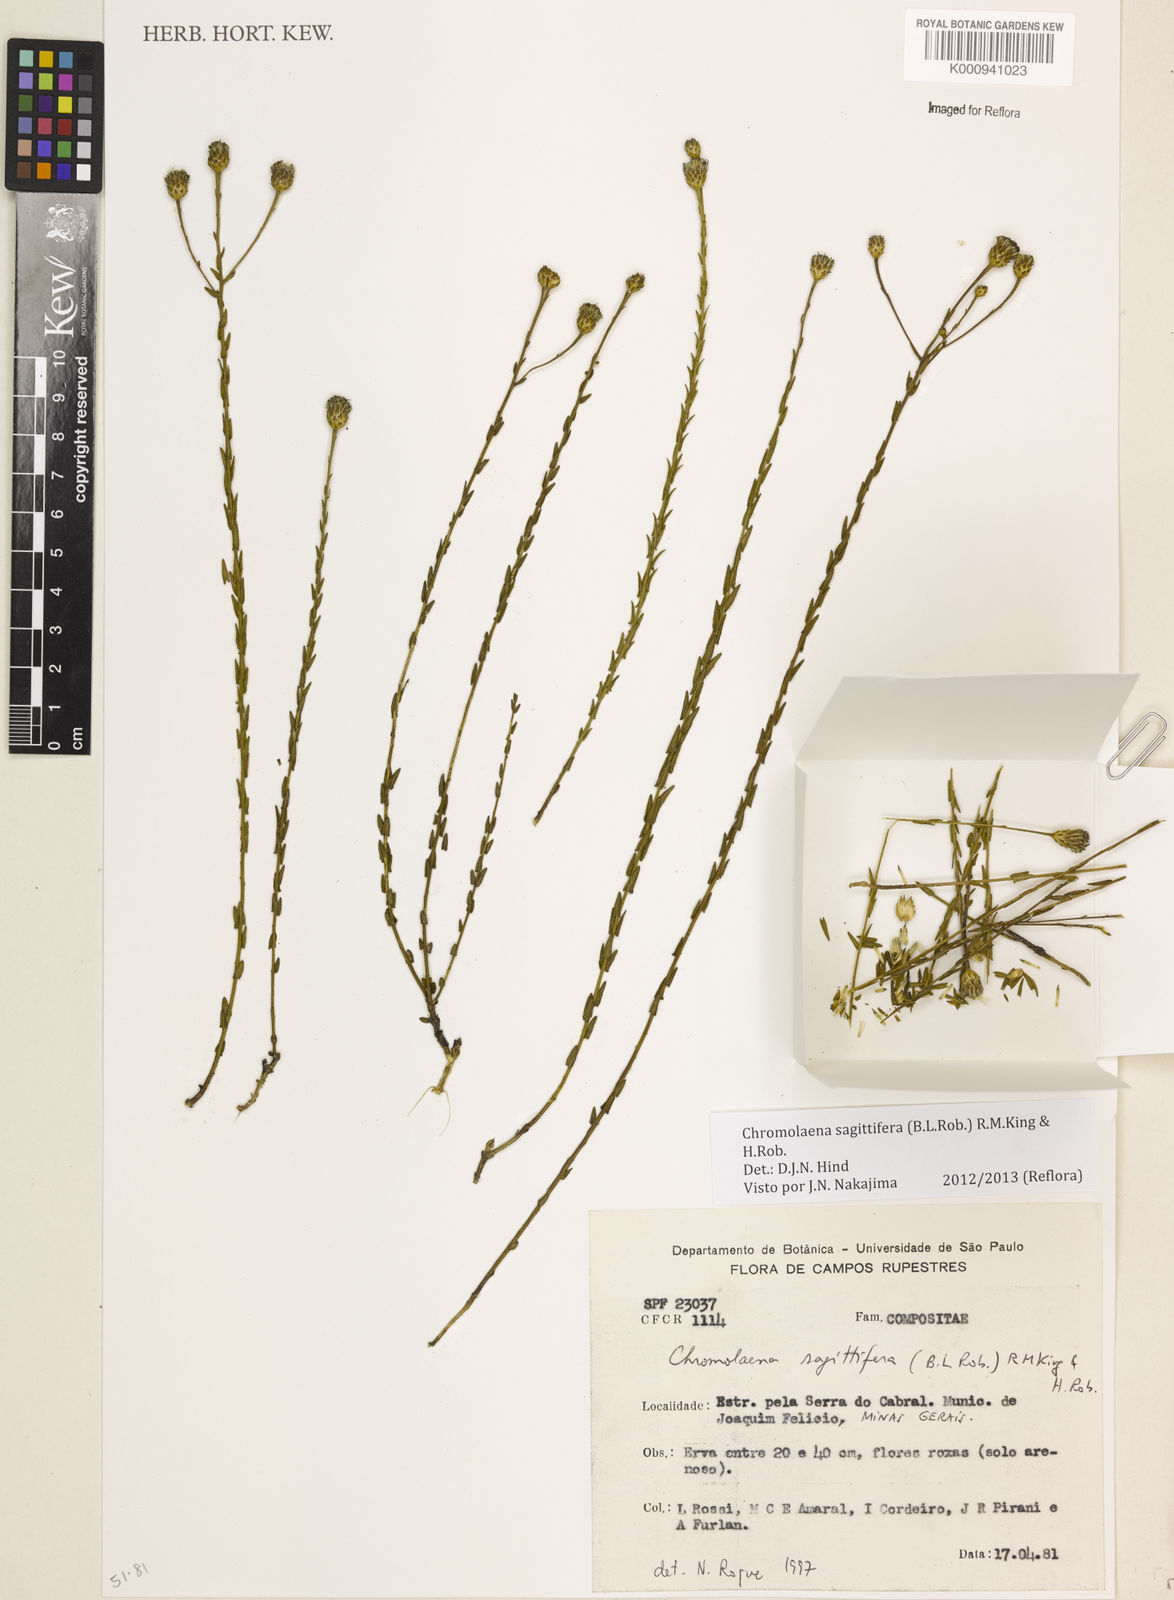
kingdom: Plantae
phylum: Tracheophyta
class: Magnoliopsida
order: Asterales
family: Asteraceae
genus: Chromolaena
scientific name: Chromolaena sagittifera
